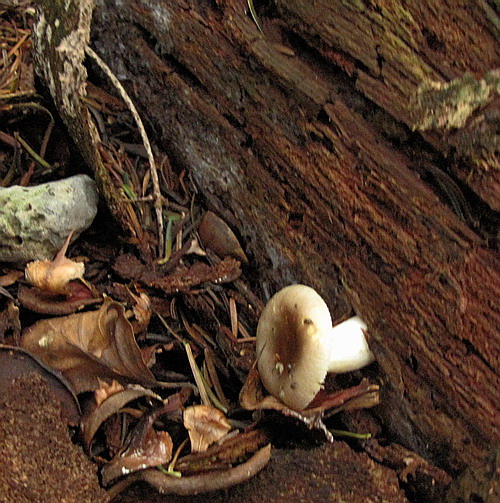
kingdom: Fungi
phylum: Basidiomycota
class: Agaricomycetes
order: Russulales
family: Russulaceae
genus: Russula
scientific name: Russula puellaris
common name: gulstokket skørhat
